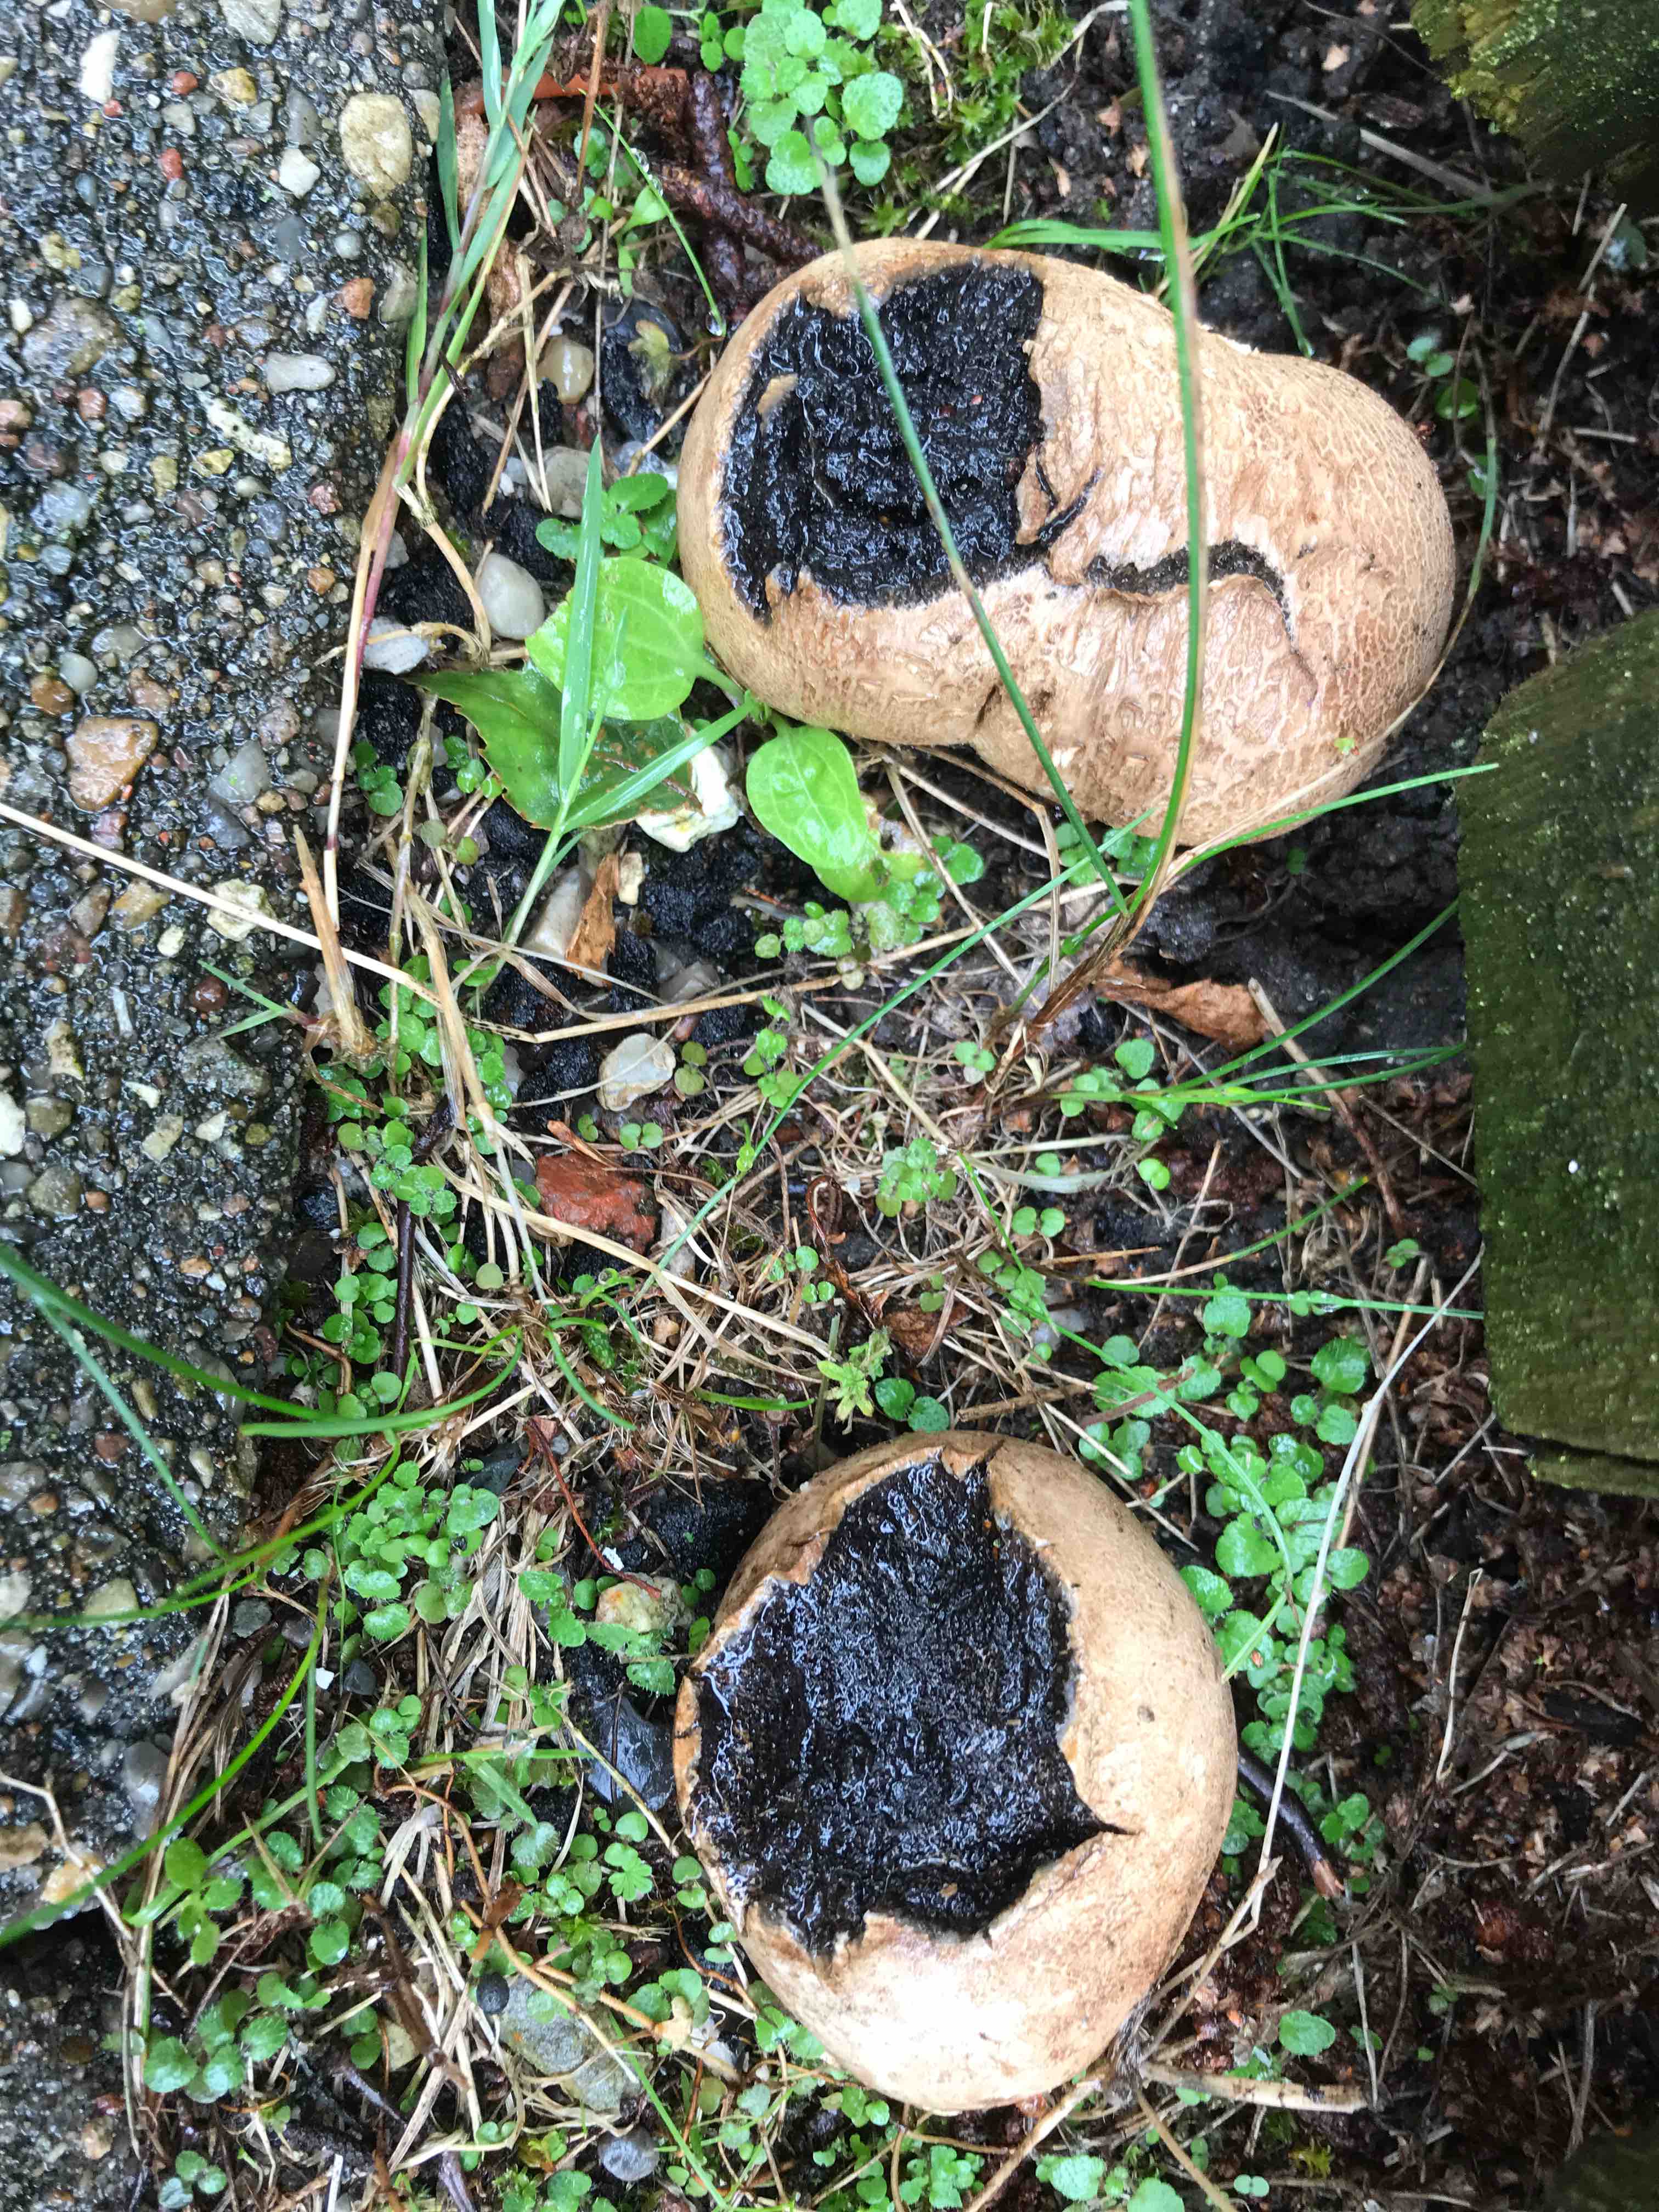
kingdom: Fungi
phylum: Basidiomycota
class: Agaricomycetes
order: Boletales
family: Sclerodermataceae
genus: Scleroderma
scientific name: Scleroderma bovista
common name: bovist-bruskbold
